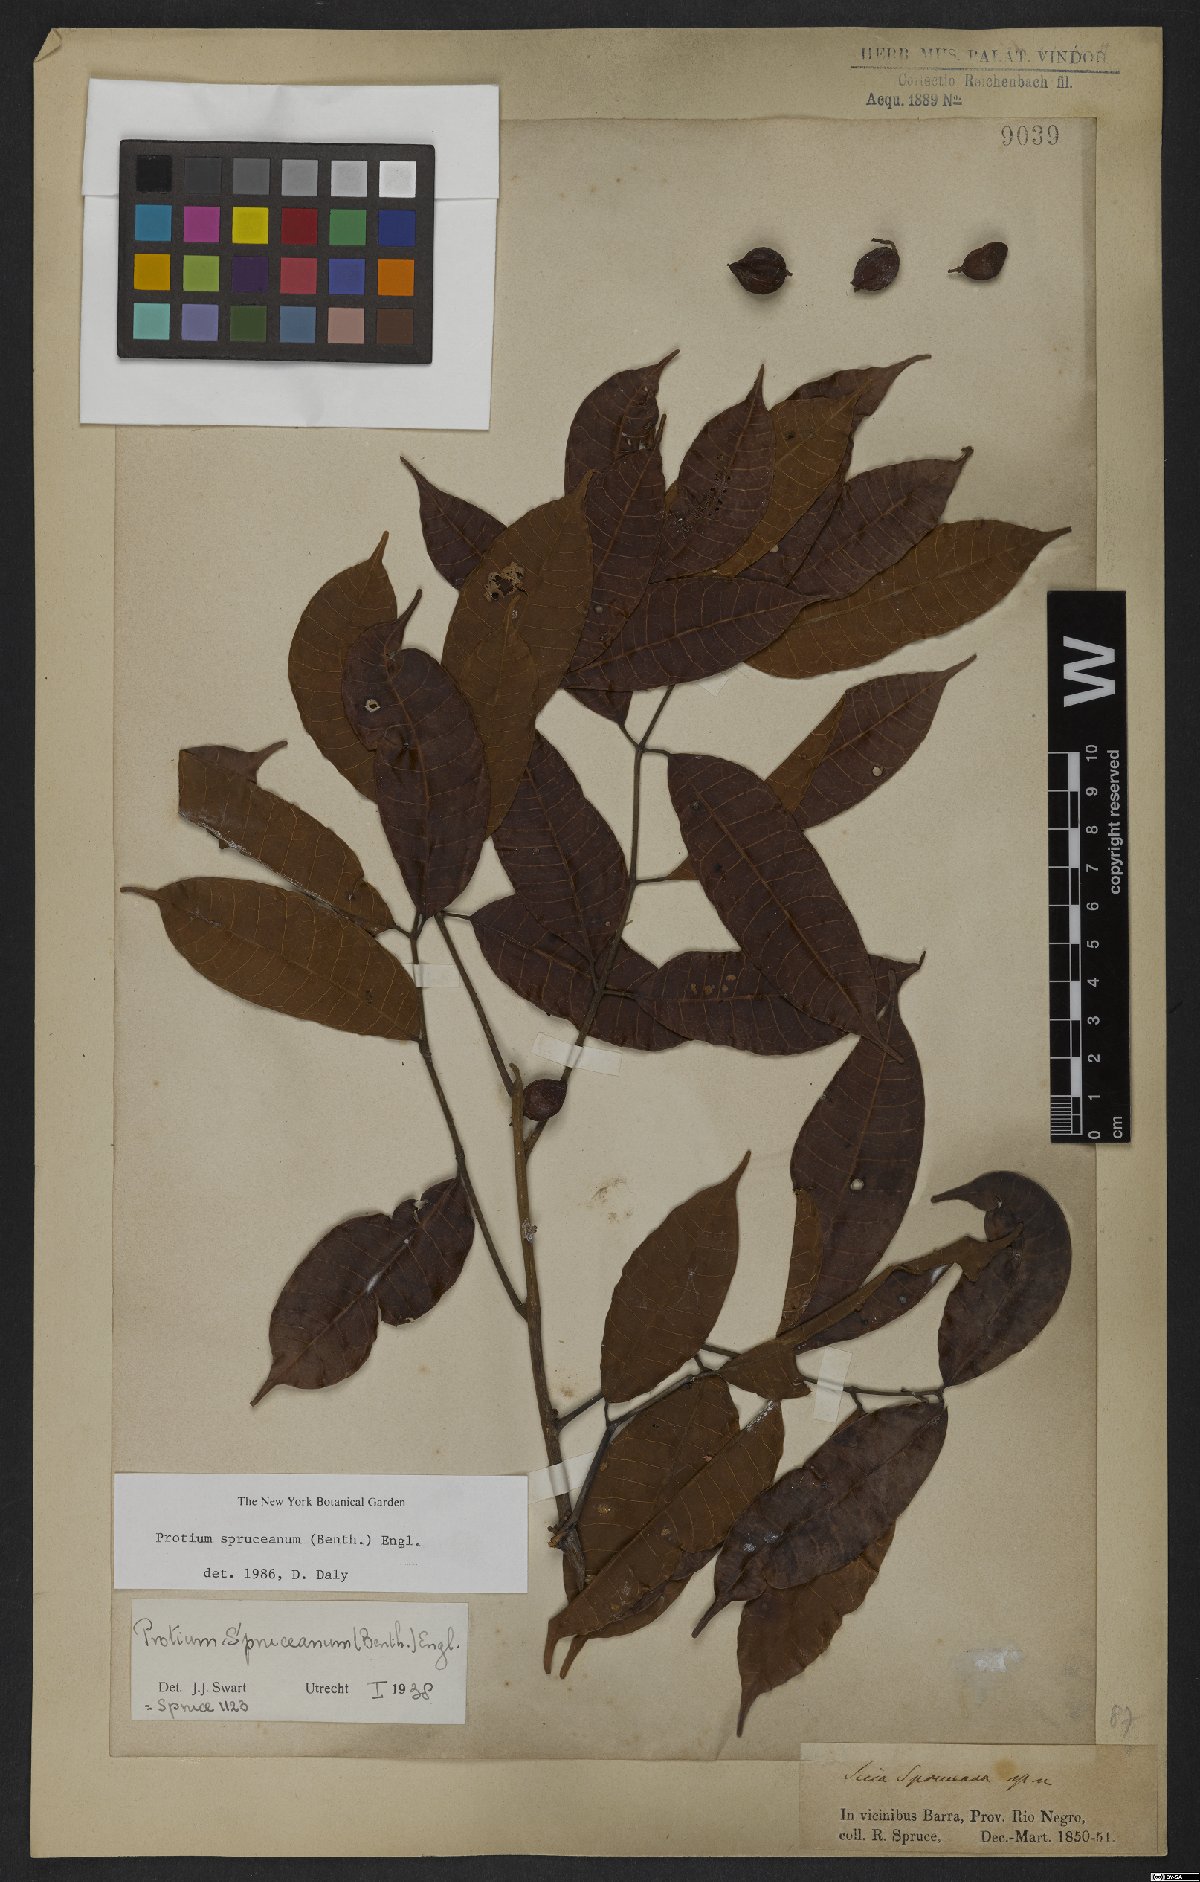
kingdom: Plantae
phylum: Tracheophyta
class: Magnoliopsida
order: Sapindales
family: Burseraceae
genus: Protium
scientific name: Protium spruceanum
